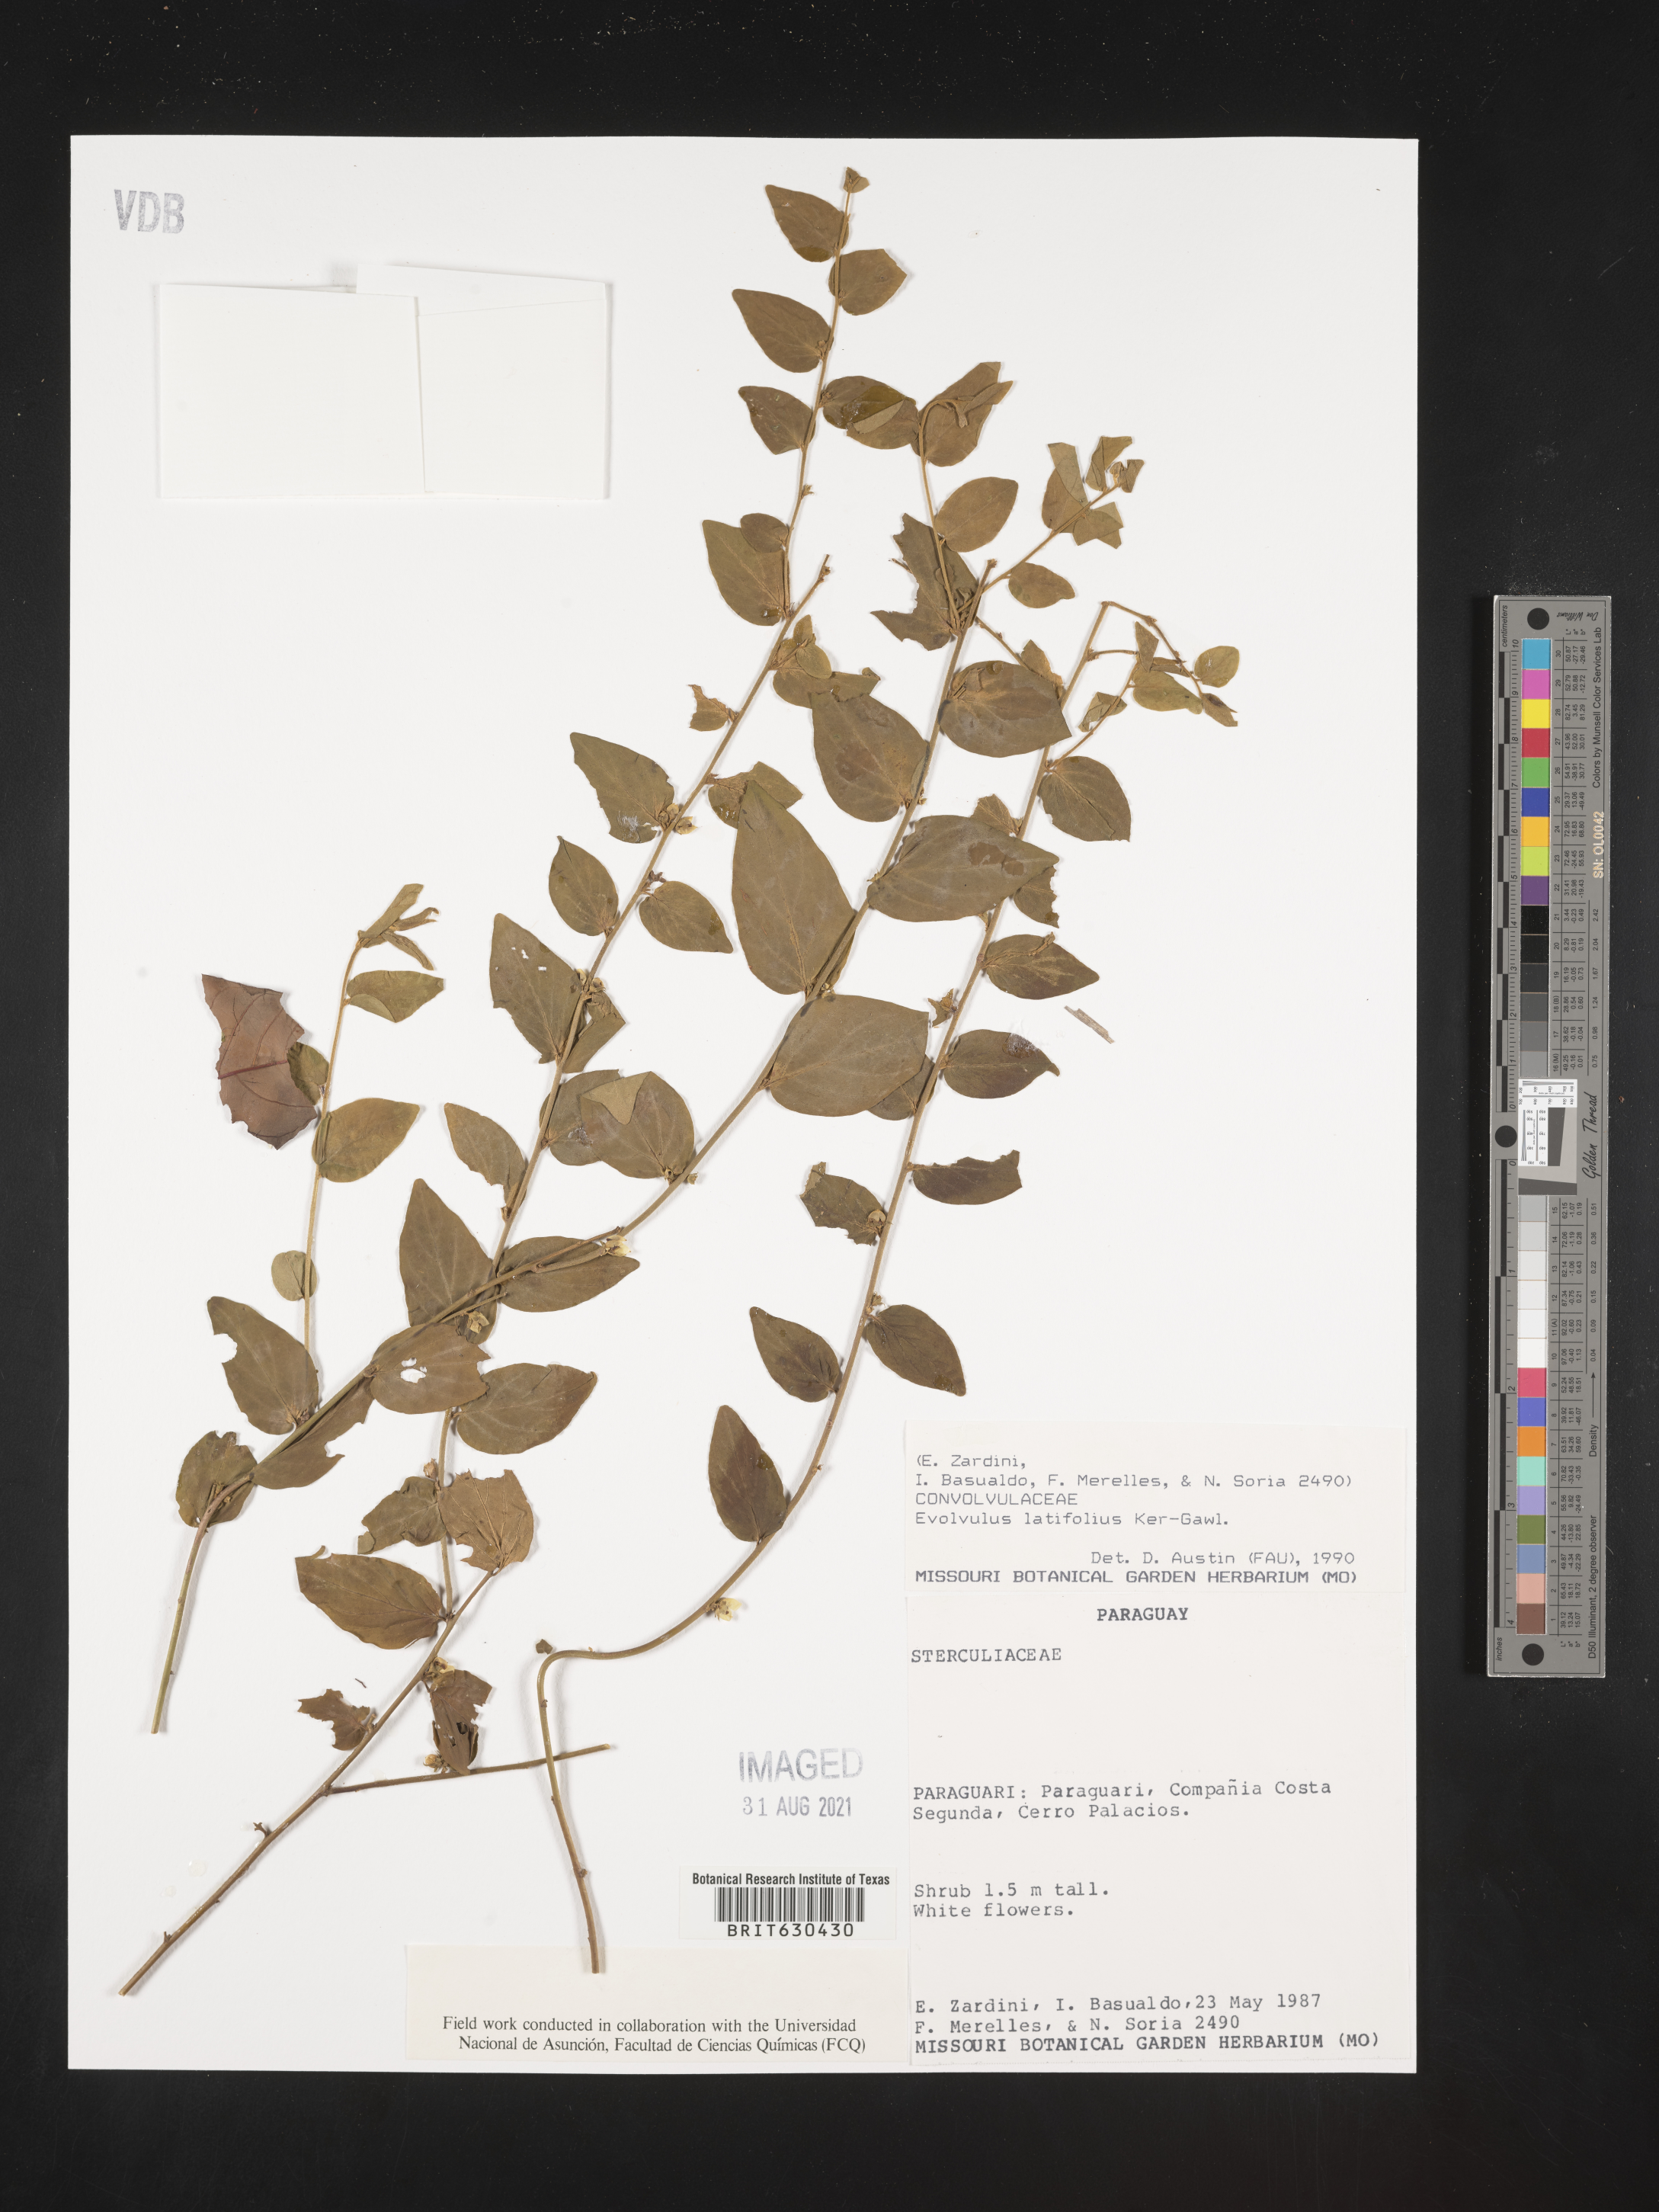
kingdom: Plantae
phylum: Tracheophyta
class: Magnoliopsida
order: Solanales
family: Convolvulaceae
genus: Evolvulus
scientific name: Evolvulus latifolius
